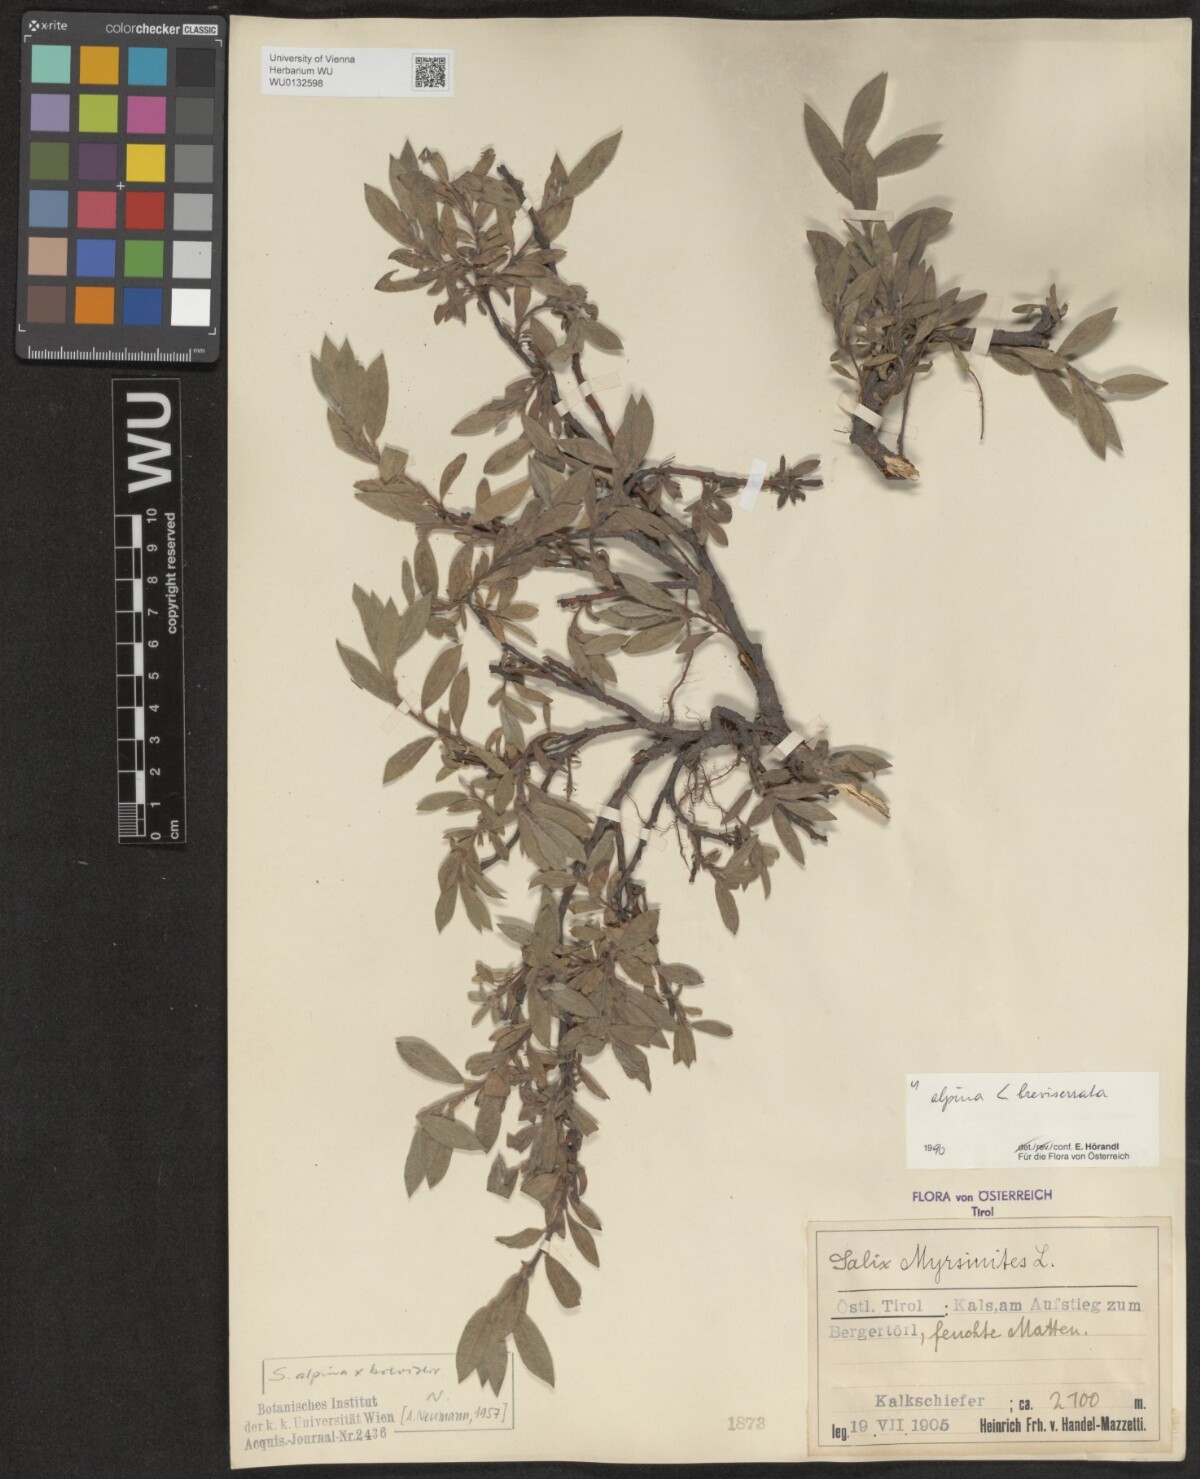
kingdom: Plantae
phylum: Tracheophyta
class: Magnoliopsida
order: Malpighiales
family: Salicaceae
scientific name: Salicaceae
